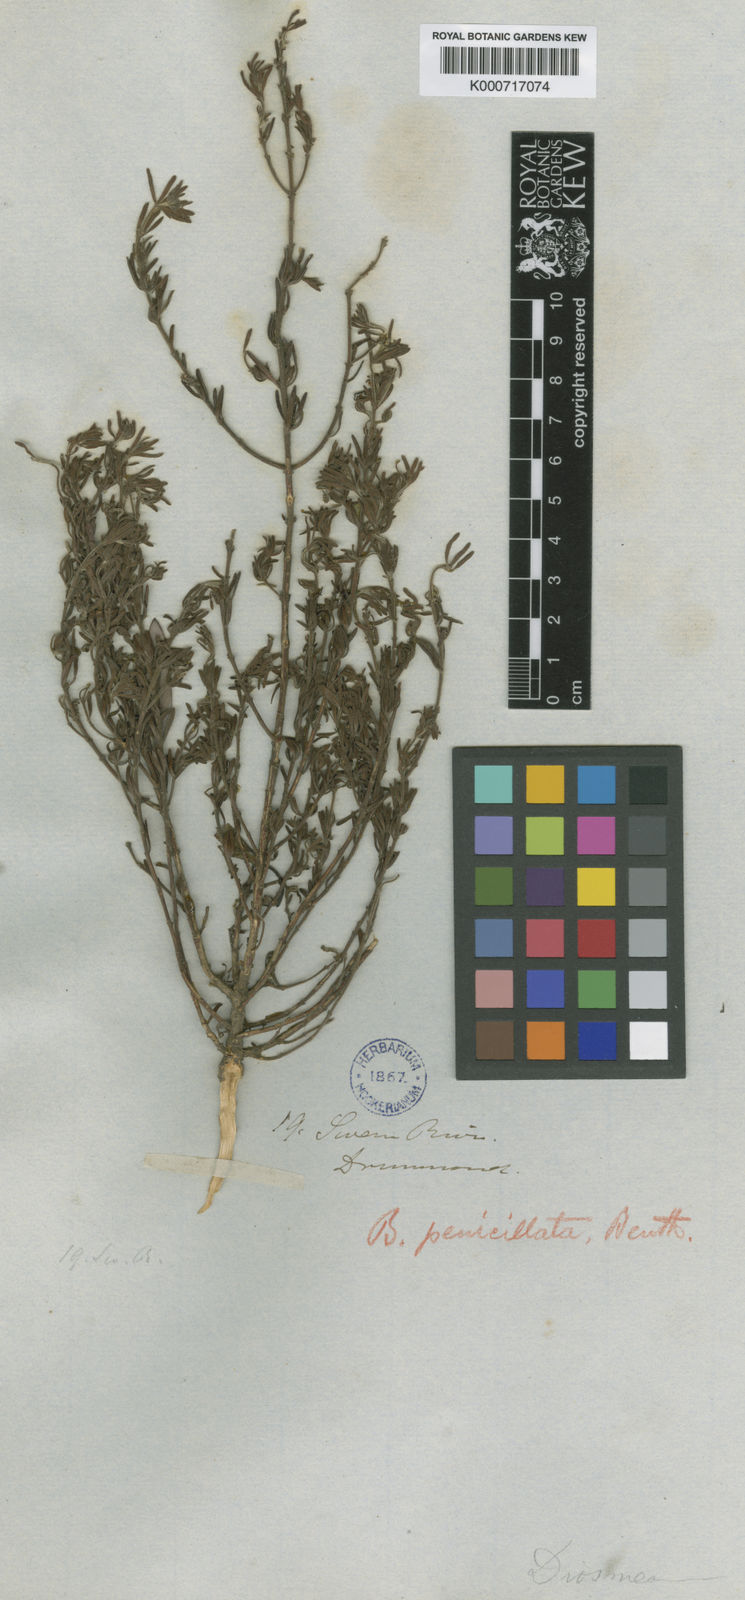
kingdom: Plantae
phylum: Tracheophyta
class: Magnoliopsida
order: Sapindales
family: Rutaceae
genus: Cyanothamnus
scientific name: Cyanothamnus penicillatus
